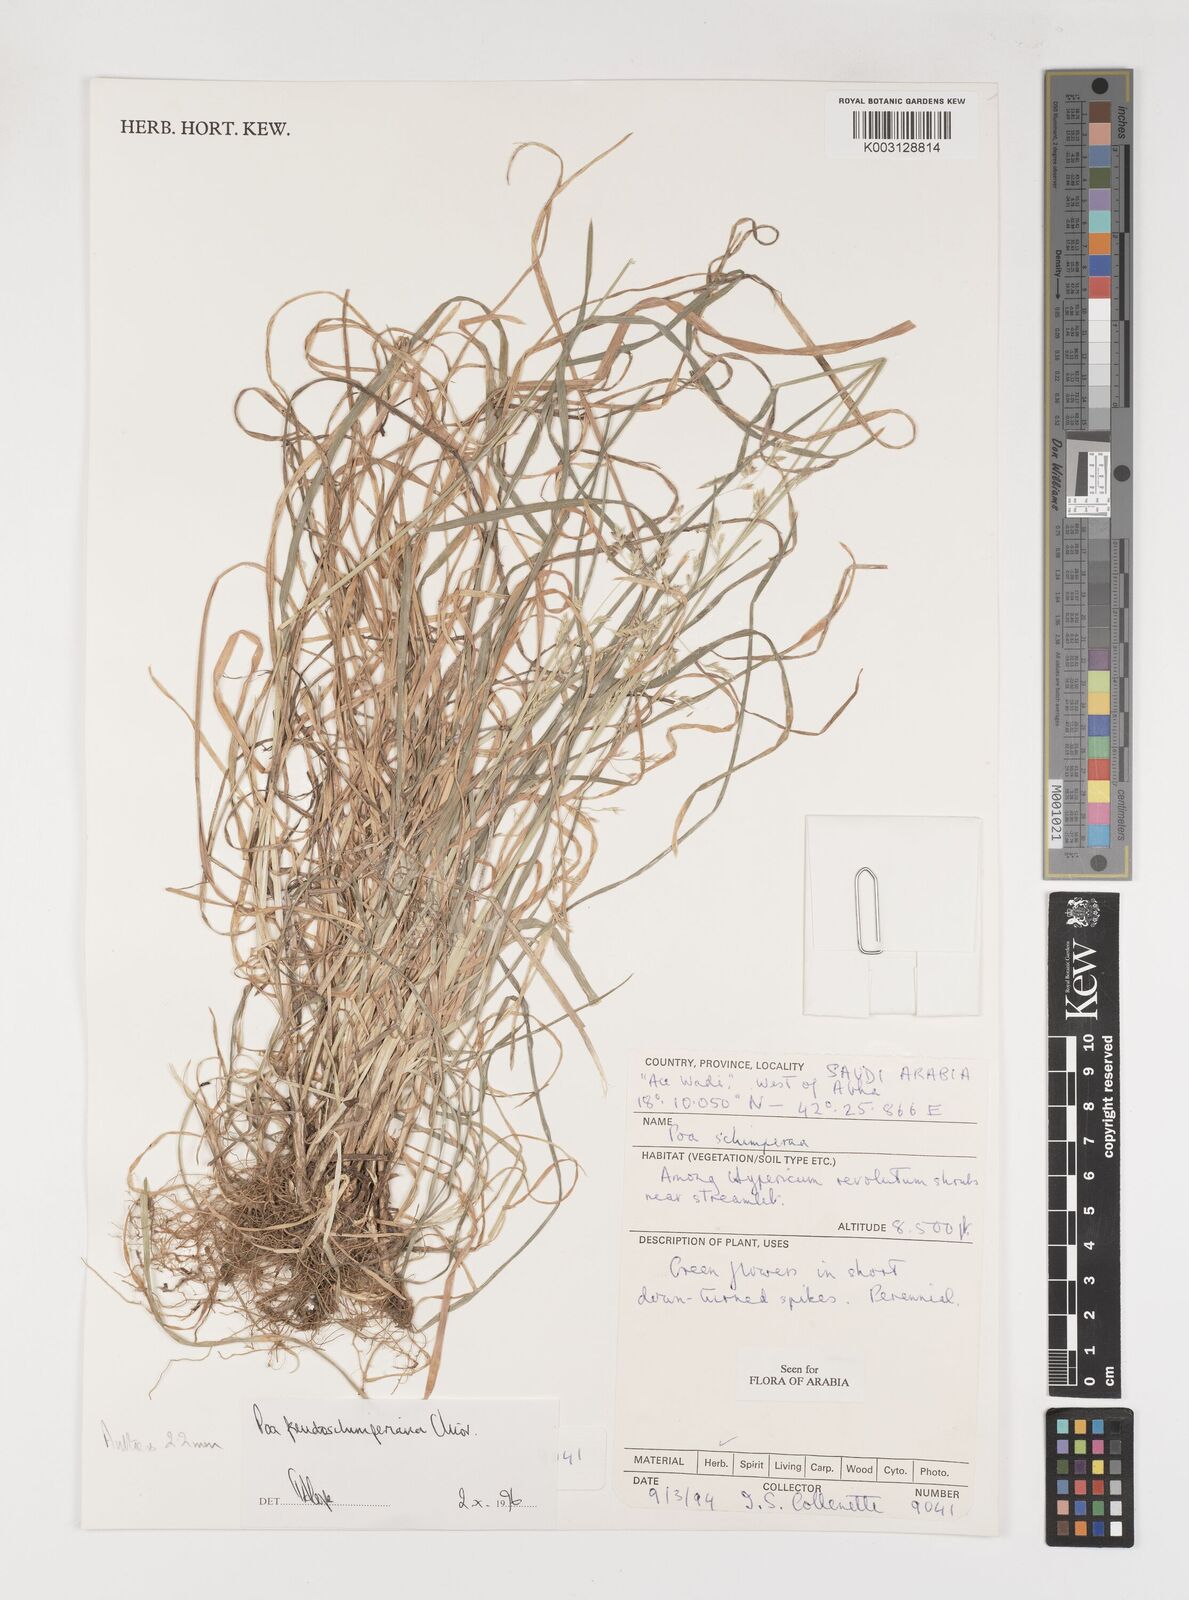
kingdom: Plantae
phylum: Tracheophyta
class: Liliopsida
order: Poales
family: Poaceae
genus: Poa
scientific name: Poa pseudoschimperiana
